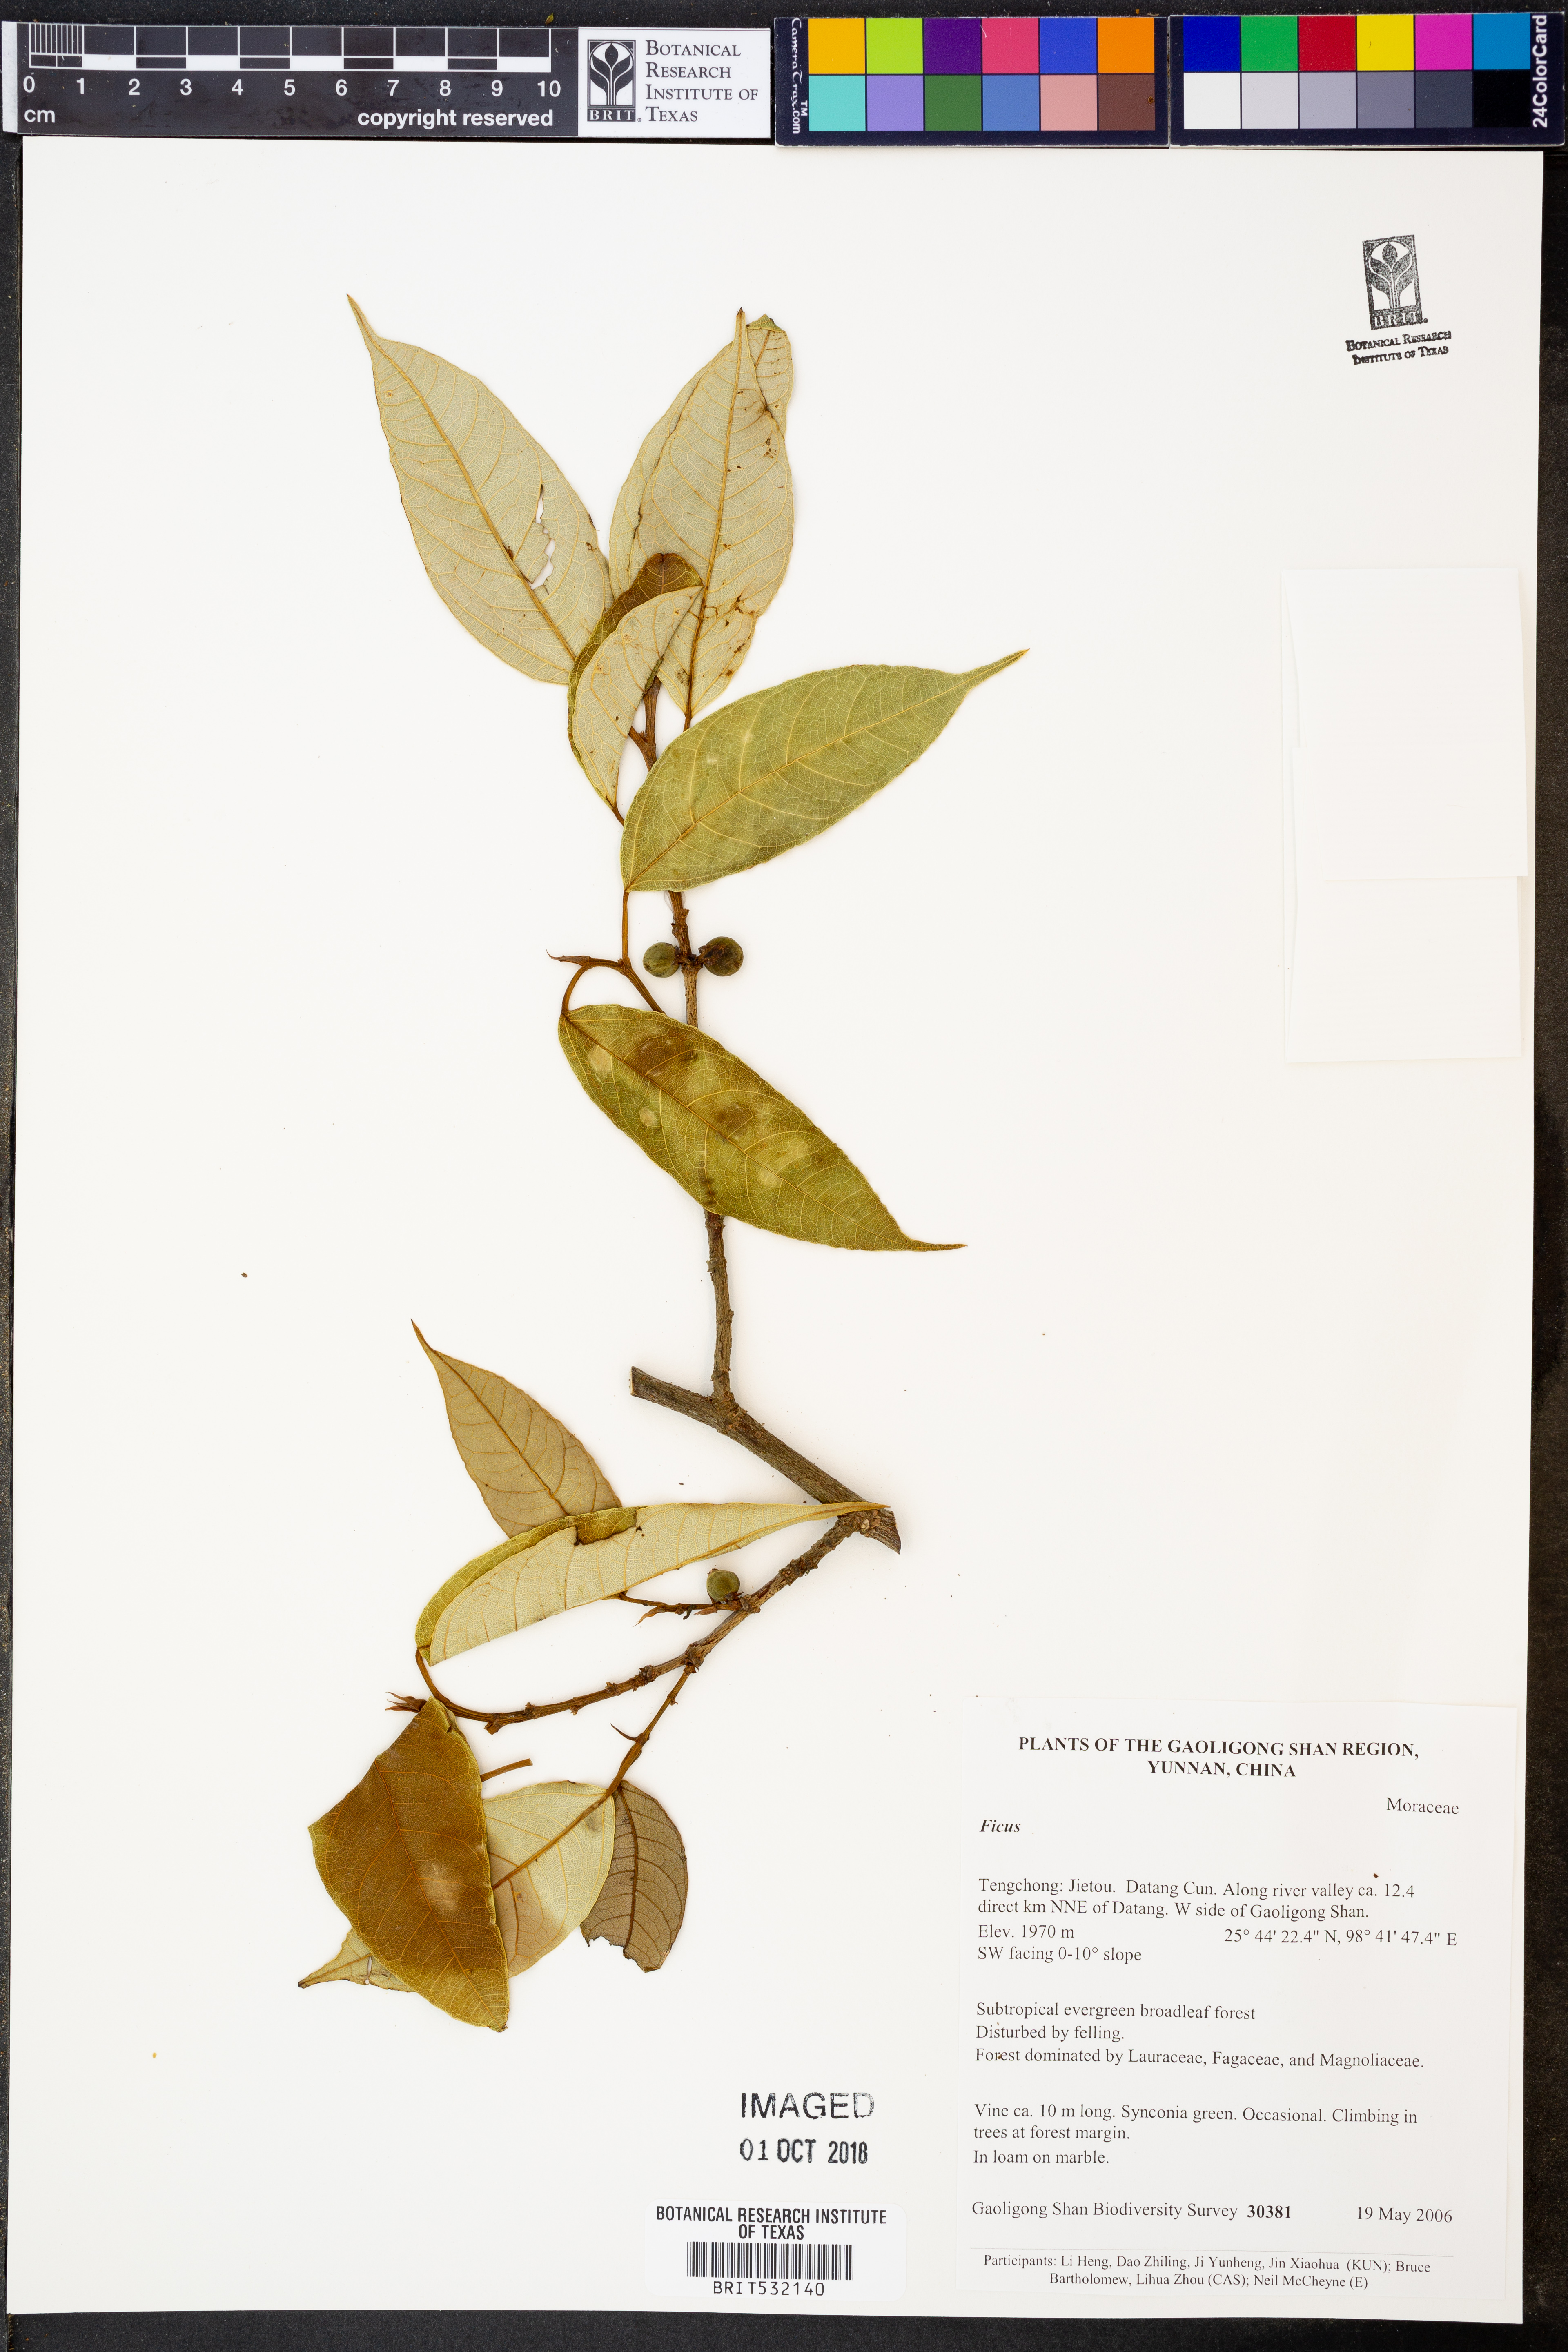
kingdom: Plantae
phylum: Tracheophyta
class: Magnoliopsida
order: Rosales
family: Moraceae
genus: Ficus
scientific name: Ficus
